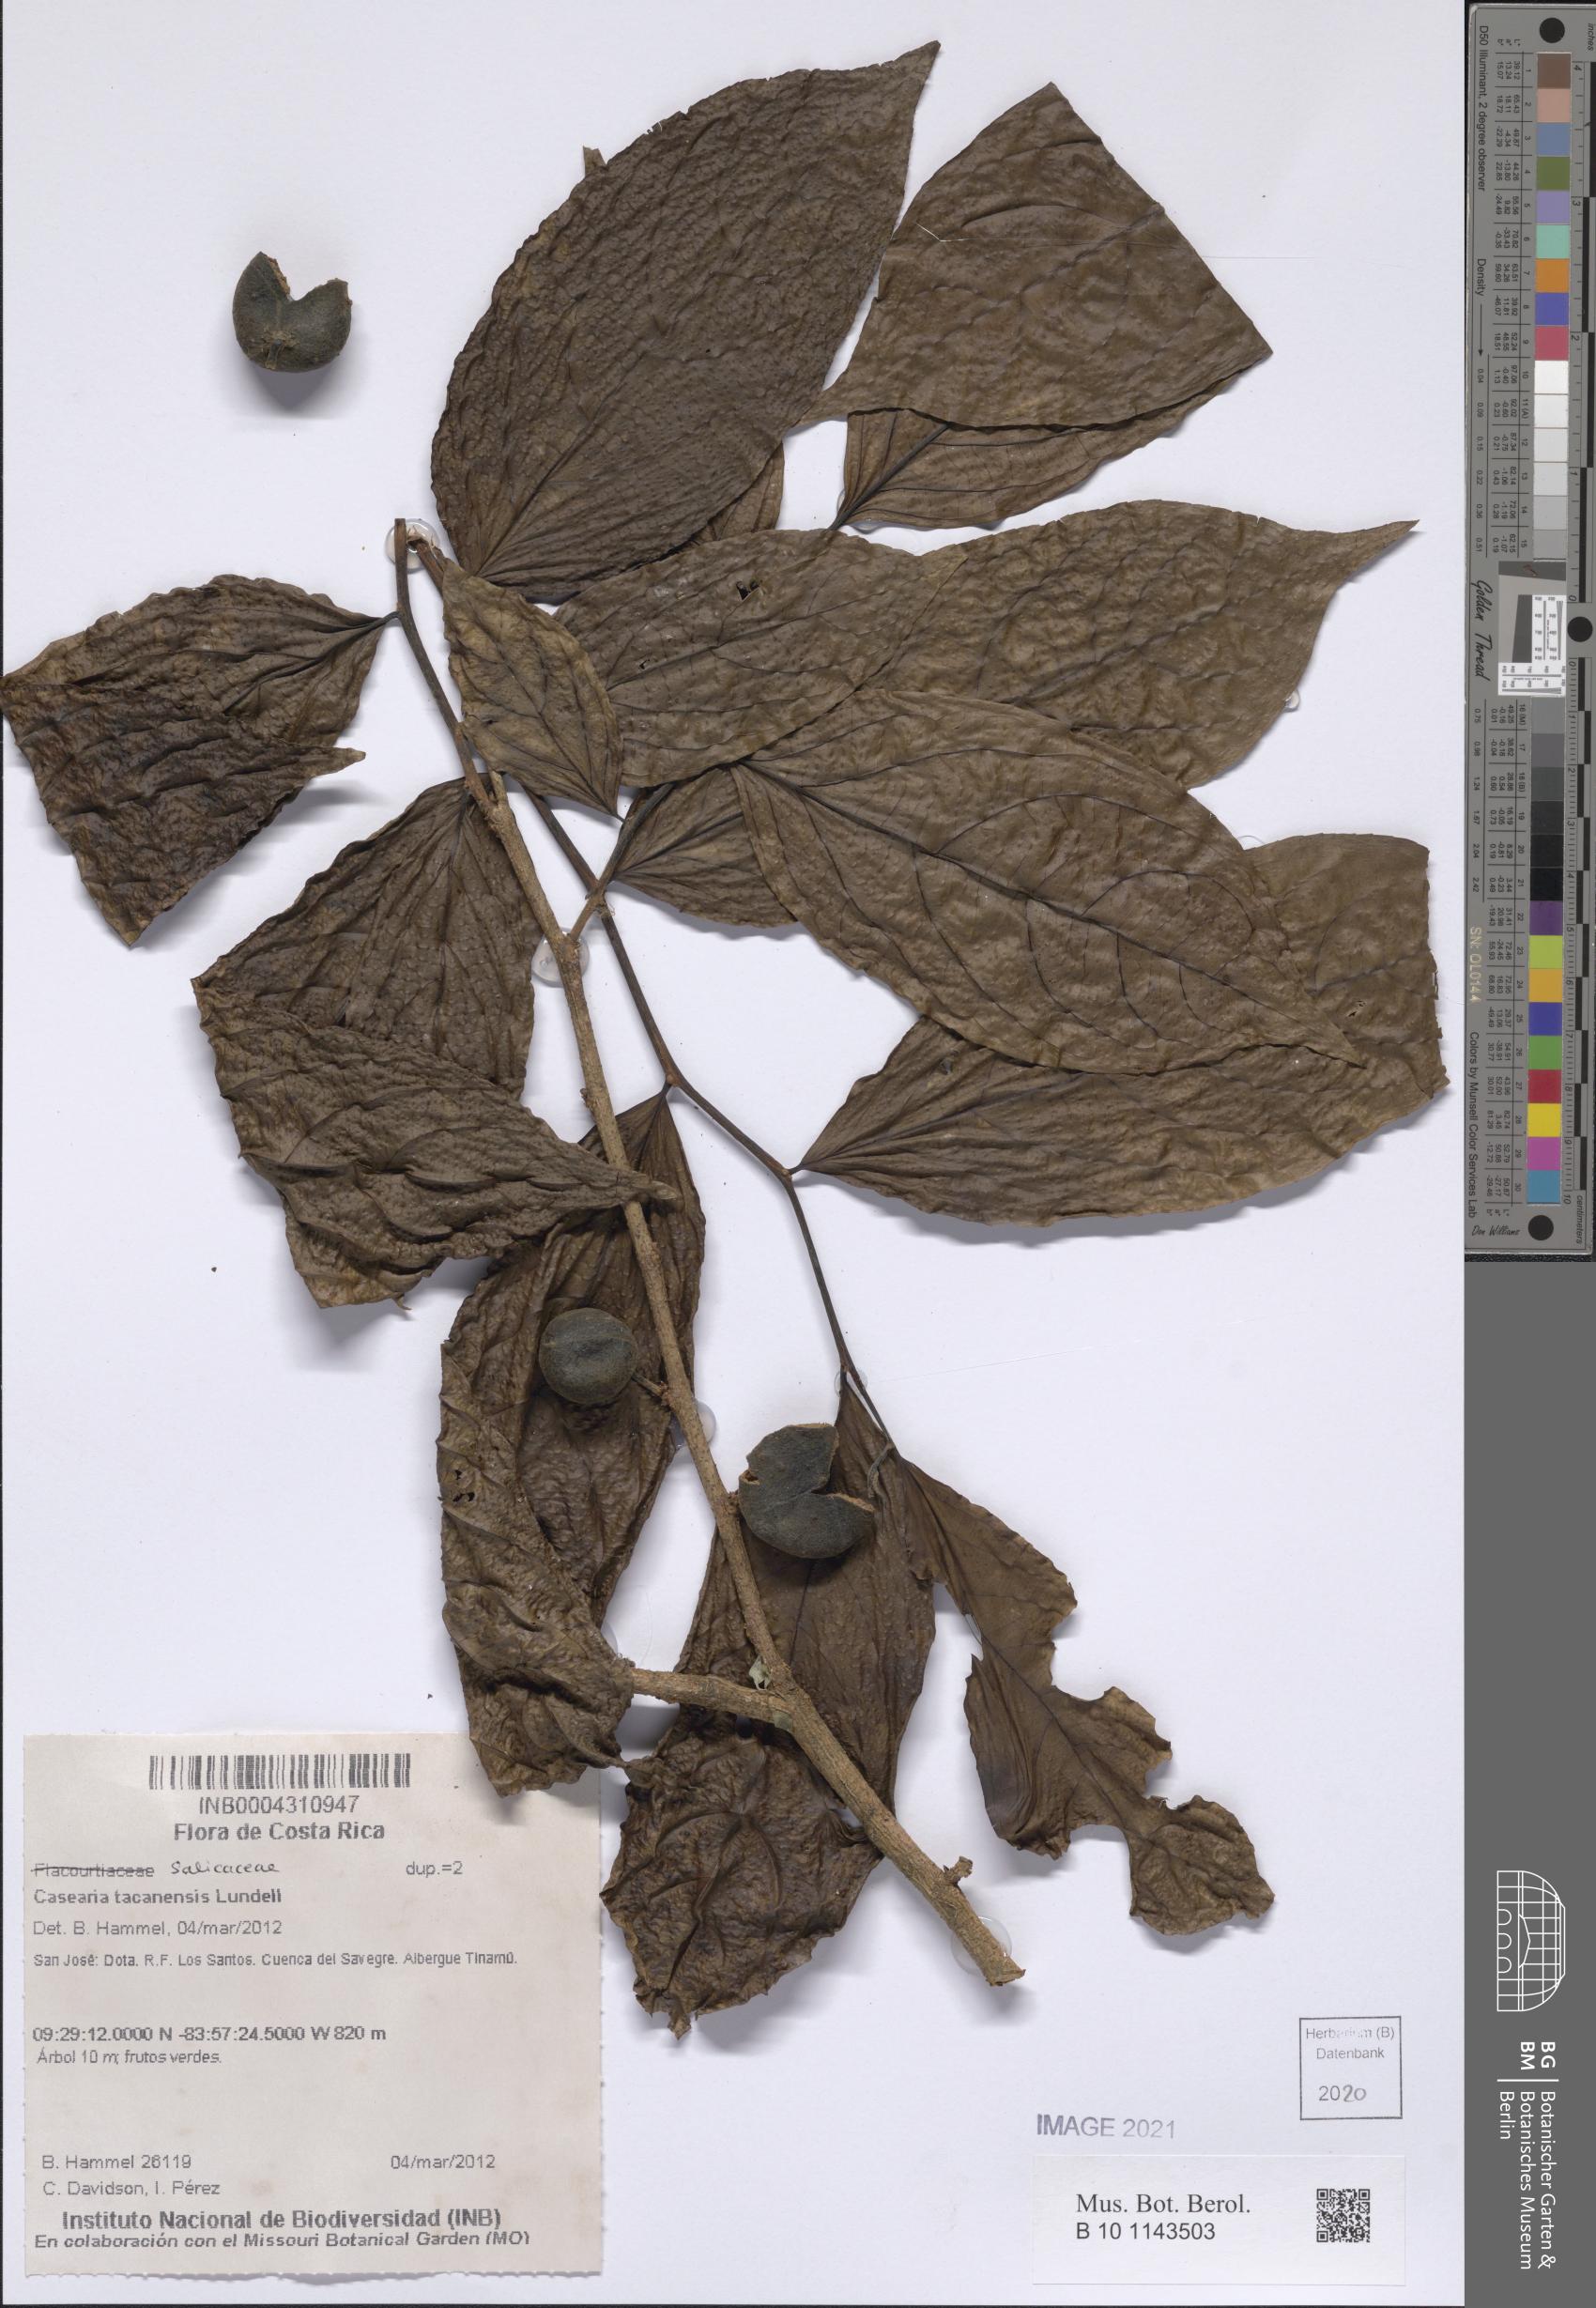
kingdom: Plantae
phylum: Tracheophyta
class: Magnoliopsida
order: Malpighiales
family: Salicaceae
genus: Casearia
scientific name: Casearia tacanensis
